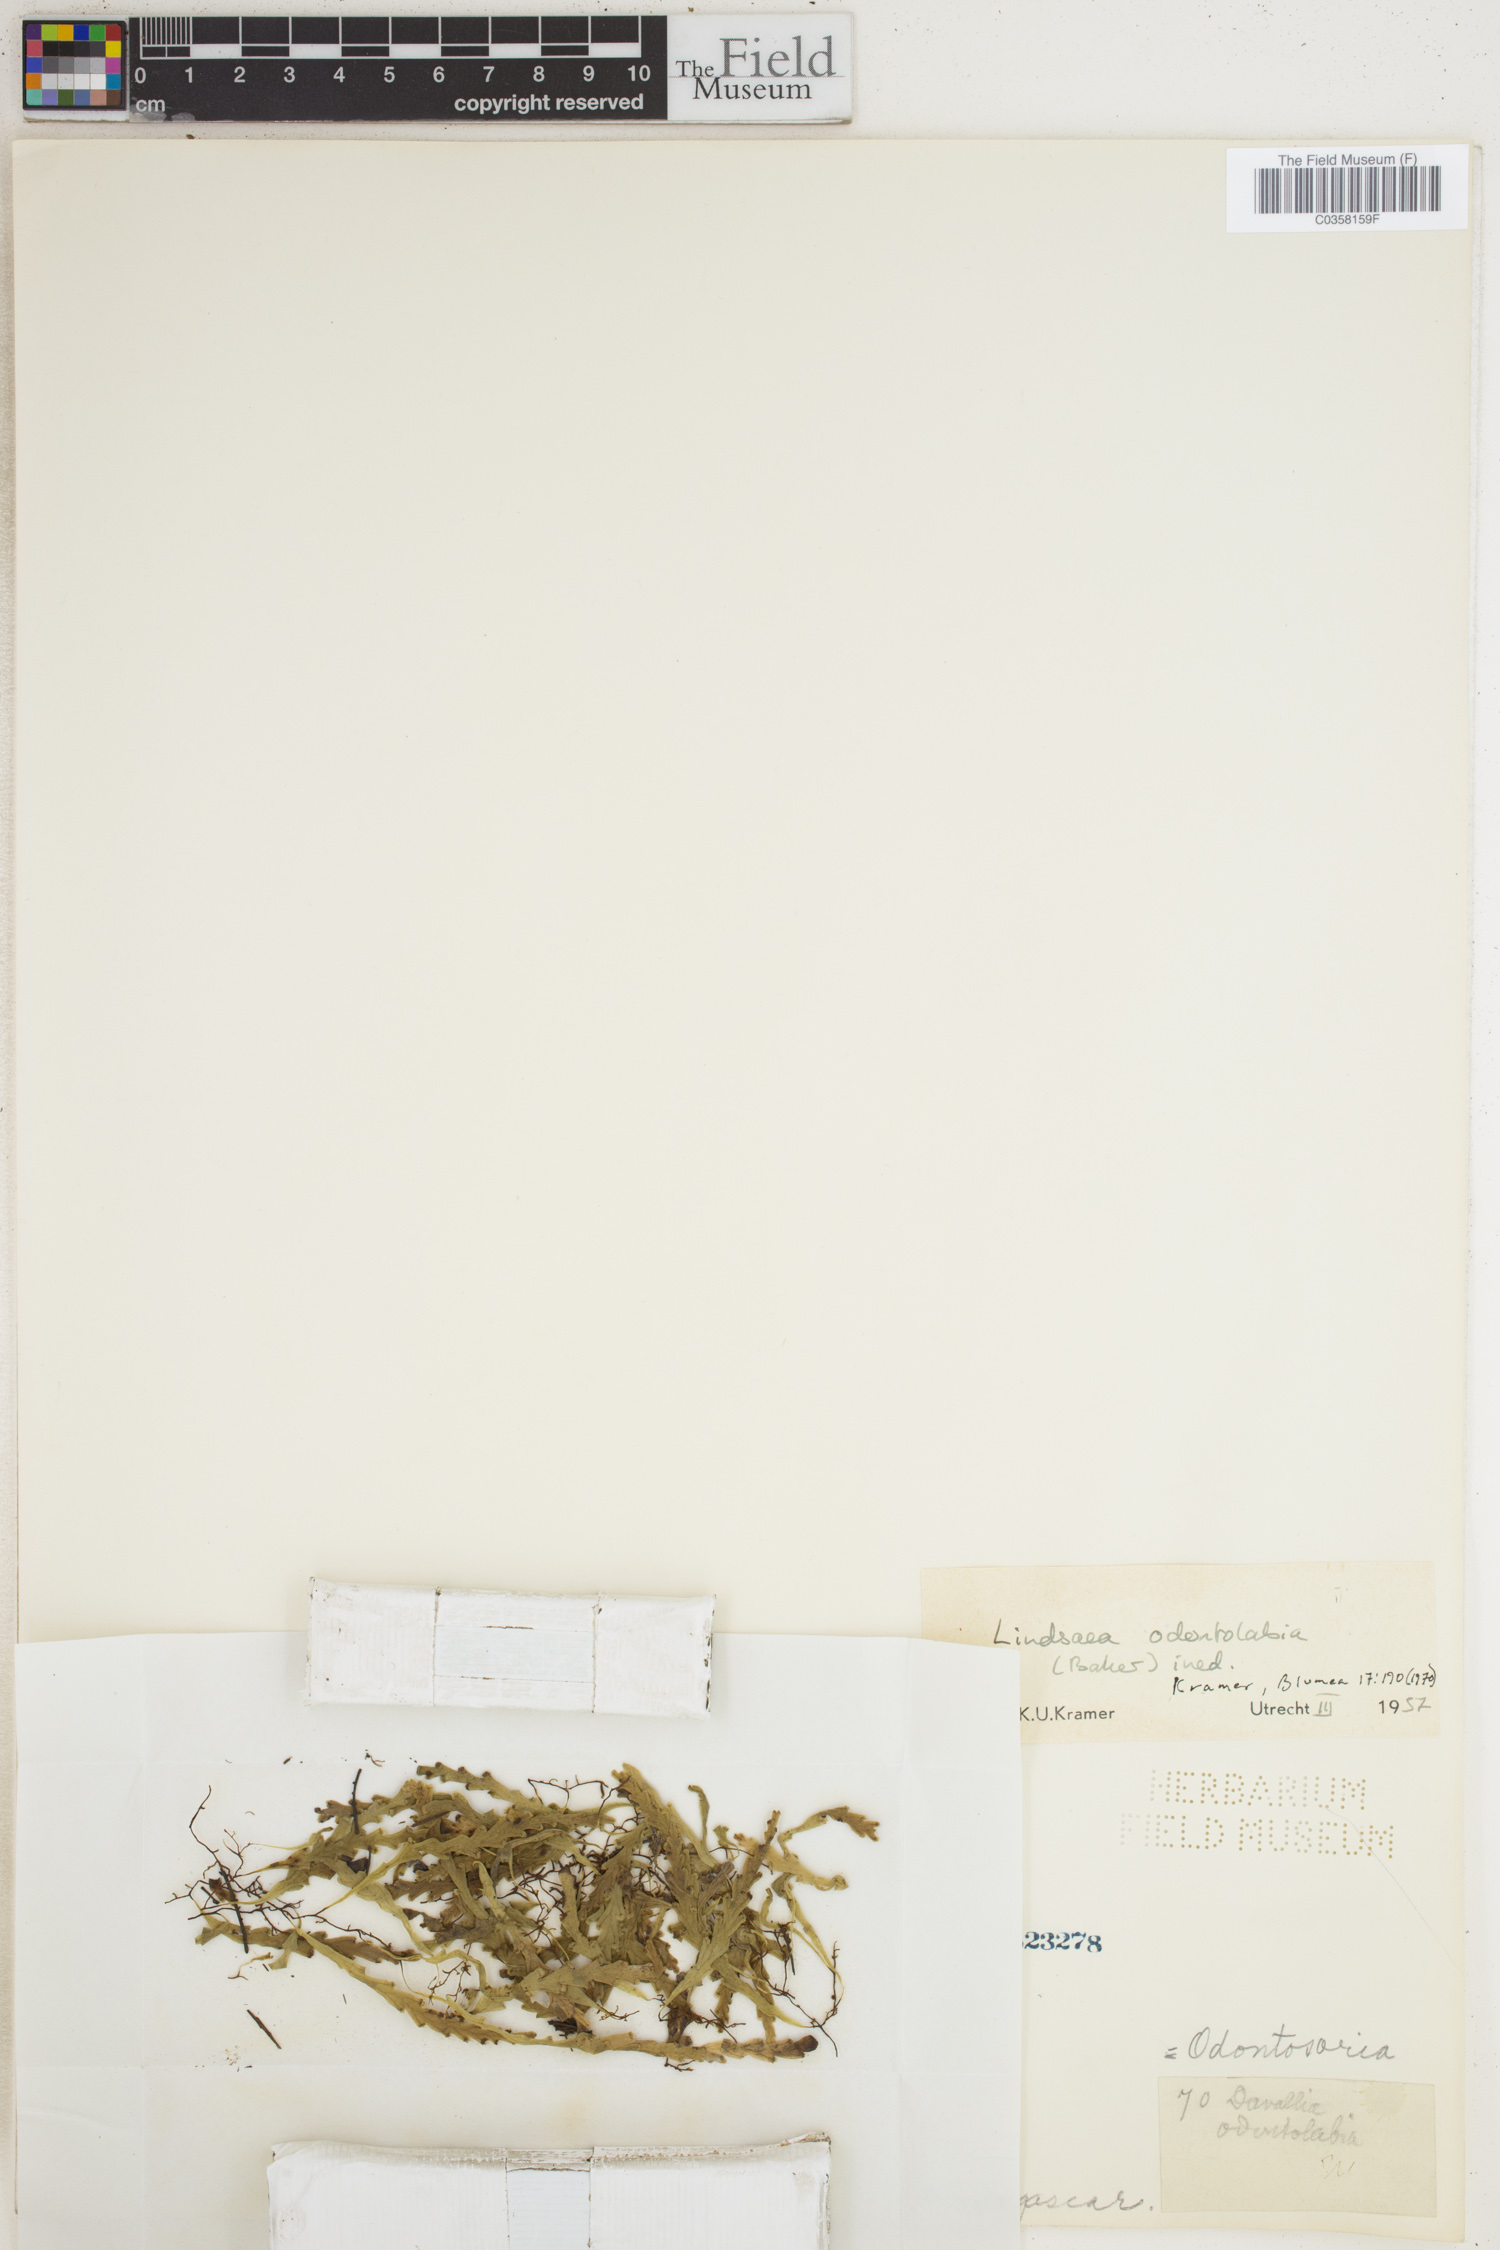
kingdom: Plantae
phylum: Tracheophyta
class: Polypodiopsida
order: Polypodiales
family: Lindsaeaceae
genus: Odontosoria
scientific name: Odontosoria
